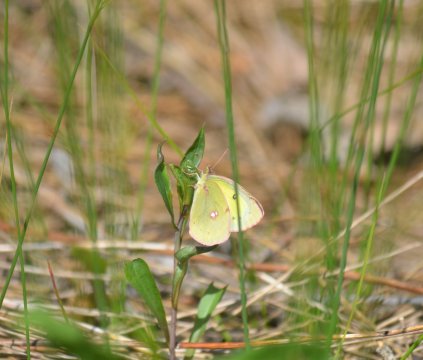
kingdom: Animalia
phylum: Arthropoda
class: Insecta
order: Lepidoptera
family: Pieridae
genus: Colias
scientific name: Colias philodice
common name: Clouded Sulphur
